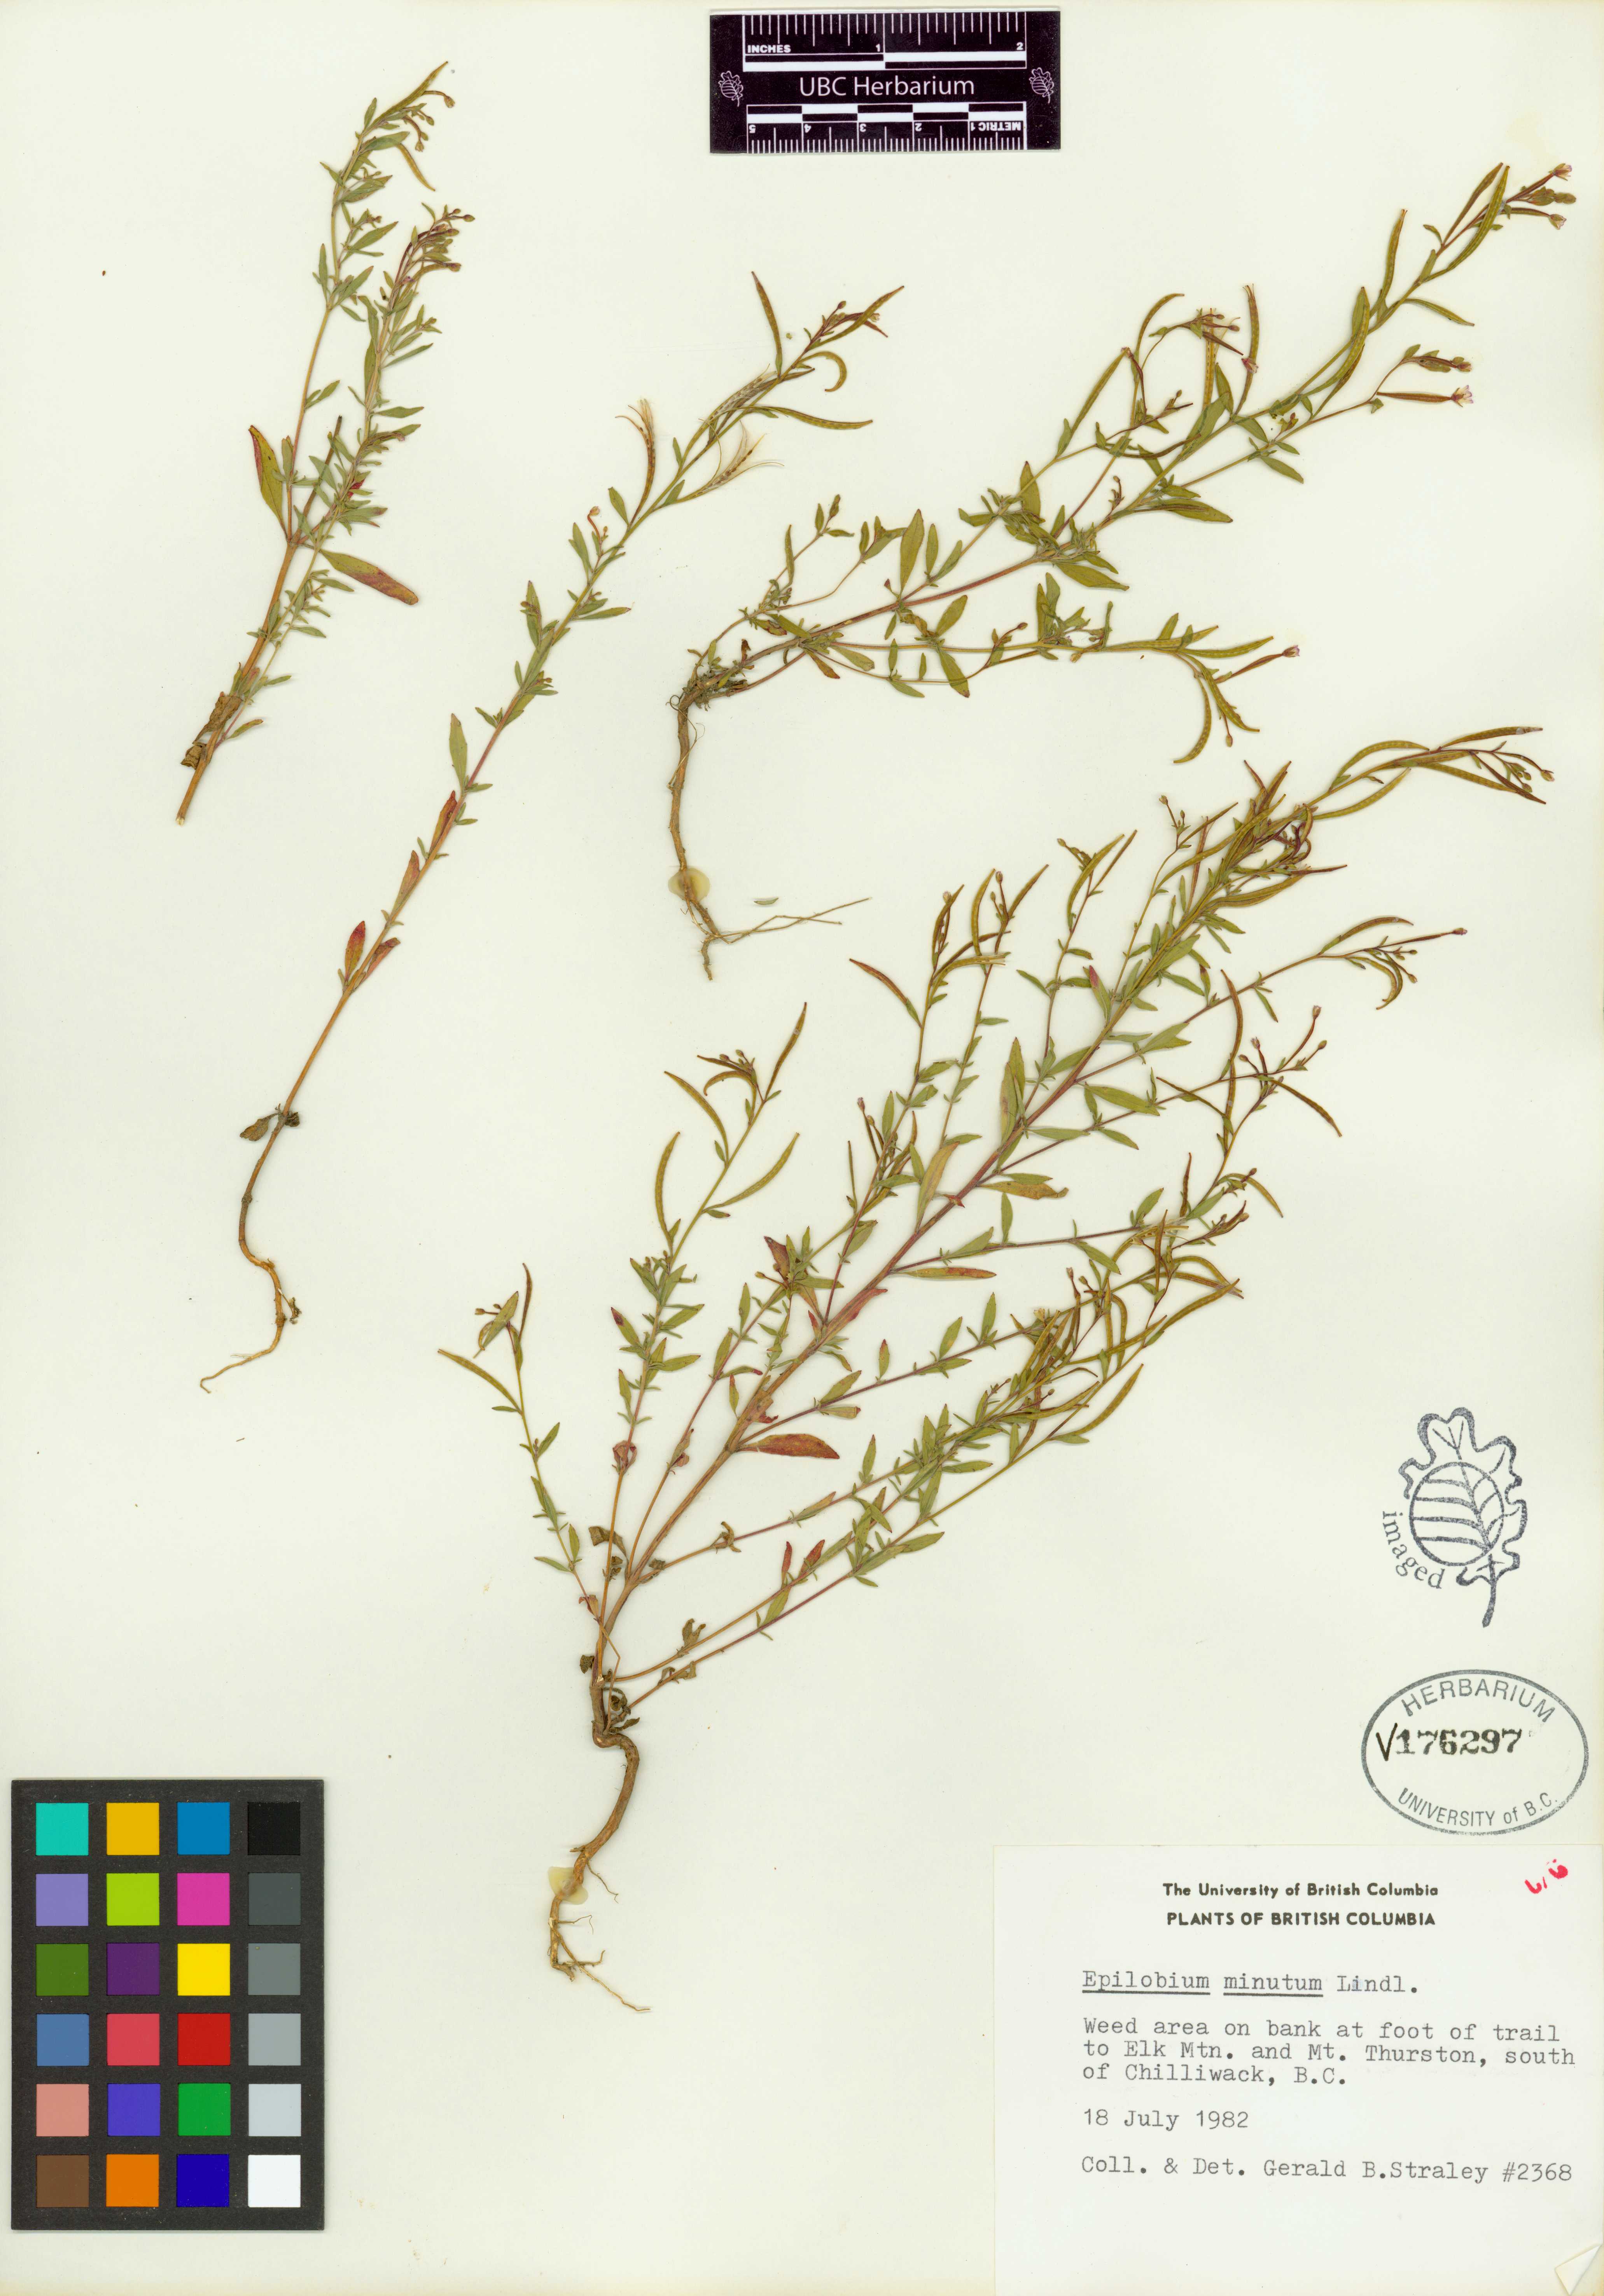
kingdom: Plantae
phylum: Tracheophyta
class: Magnoliopsida
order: Myrtales
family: Onagraceae
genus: Epilobium
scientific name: Epilobium minutum
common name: Chaparral willowherb
